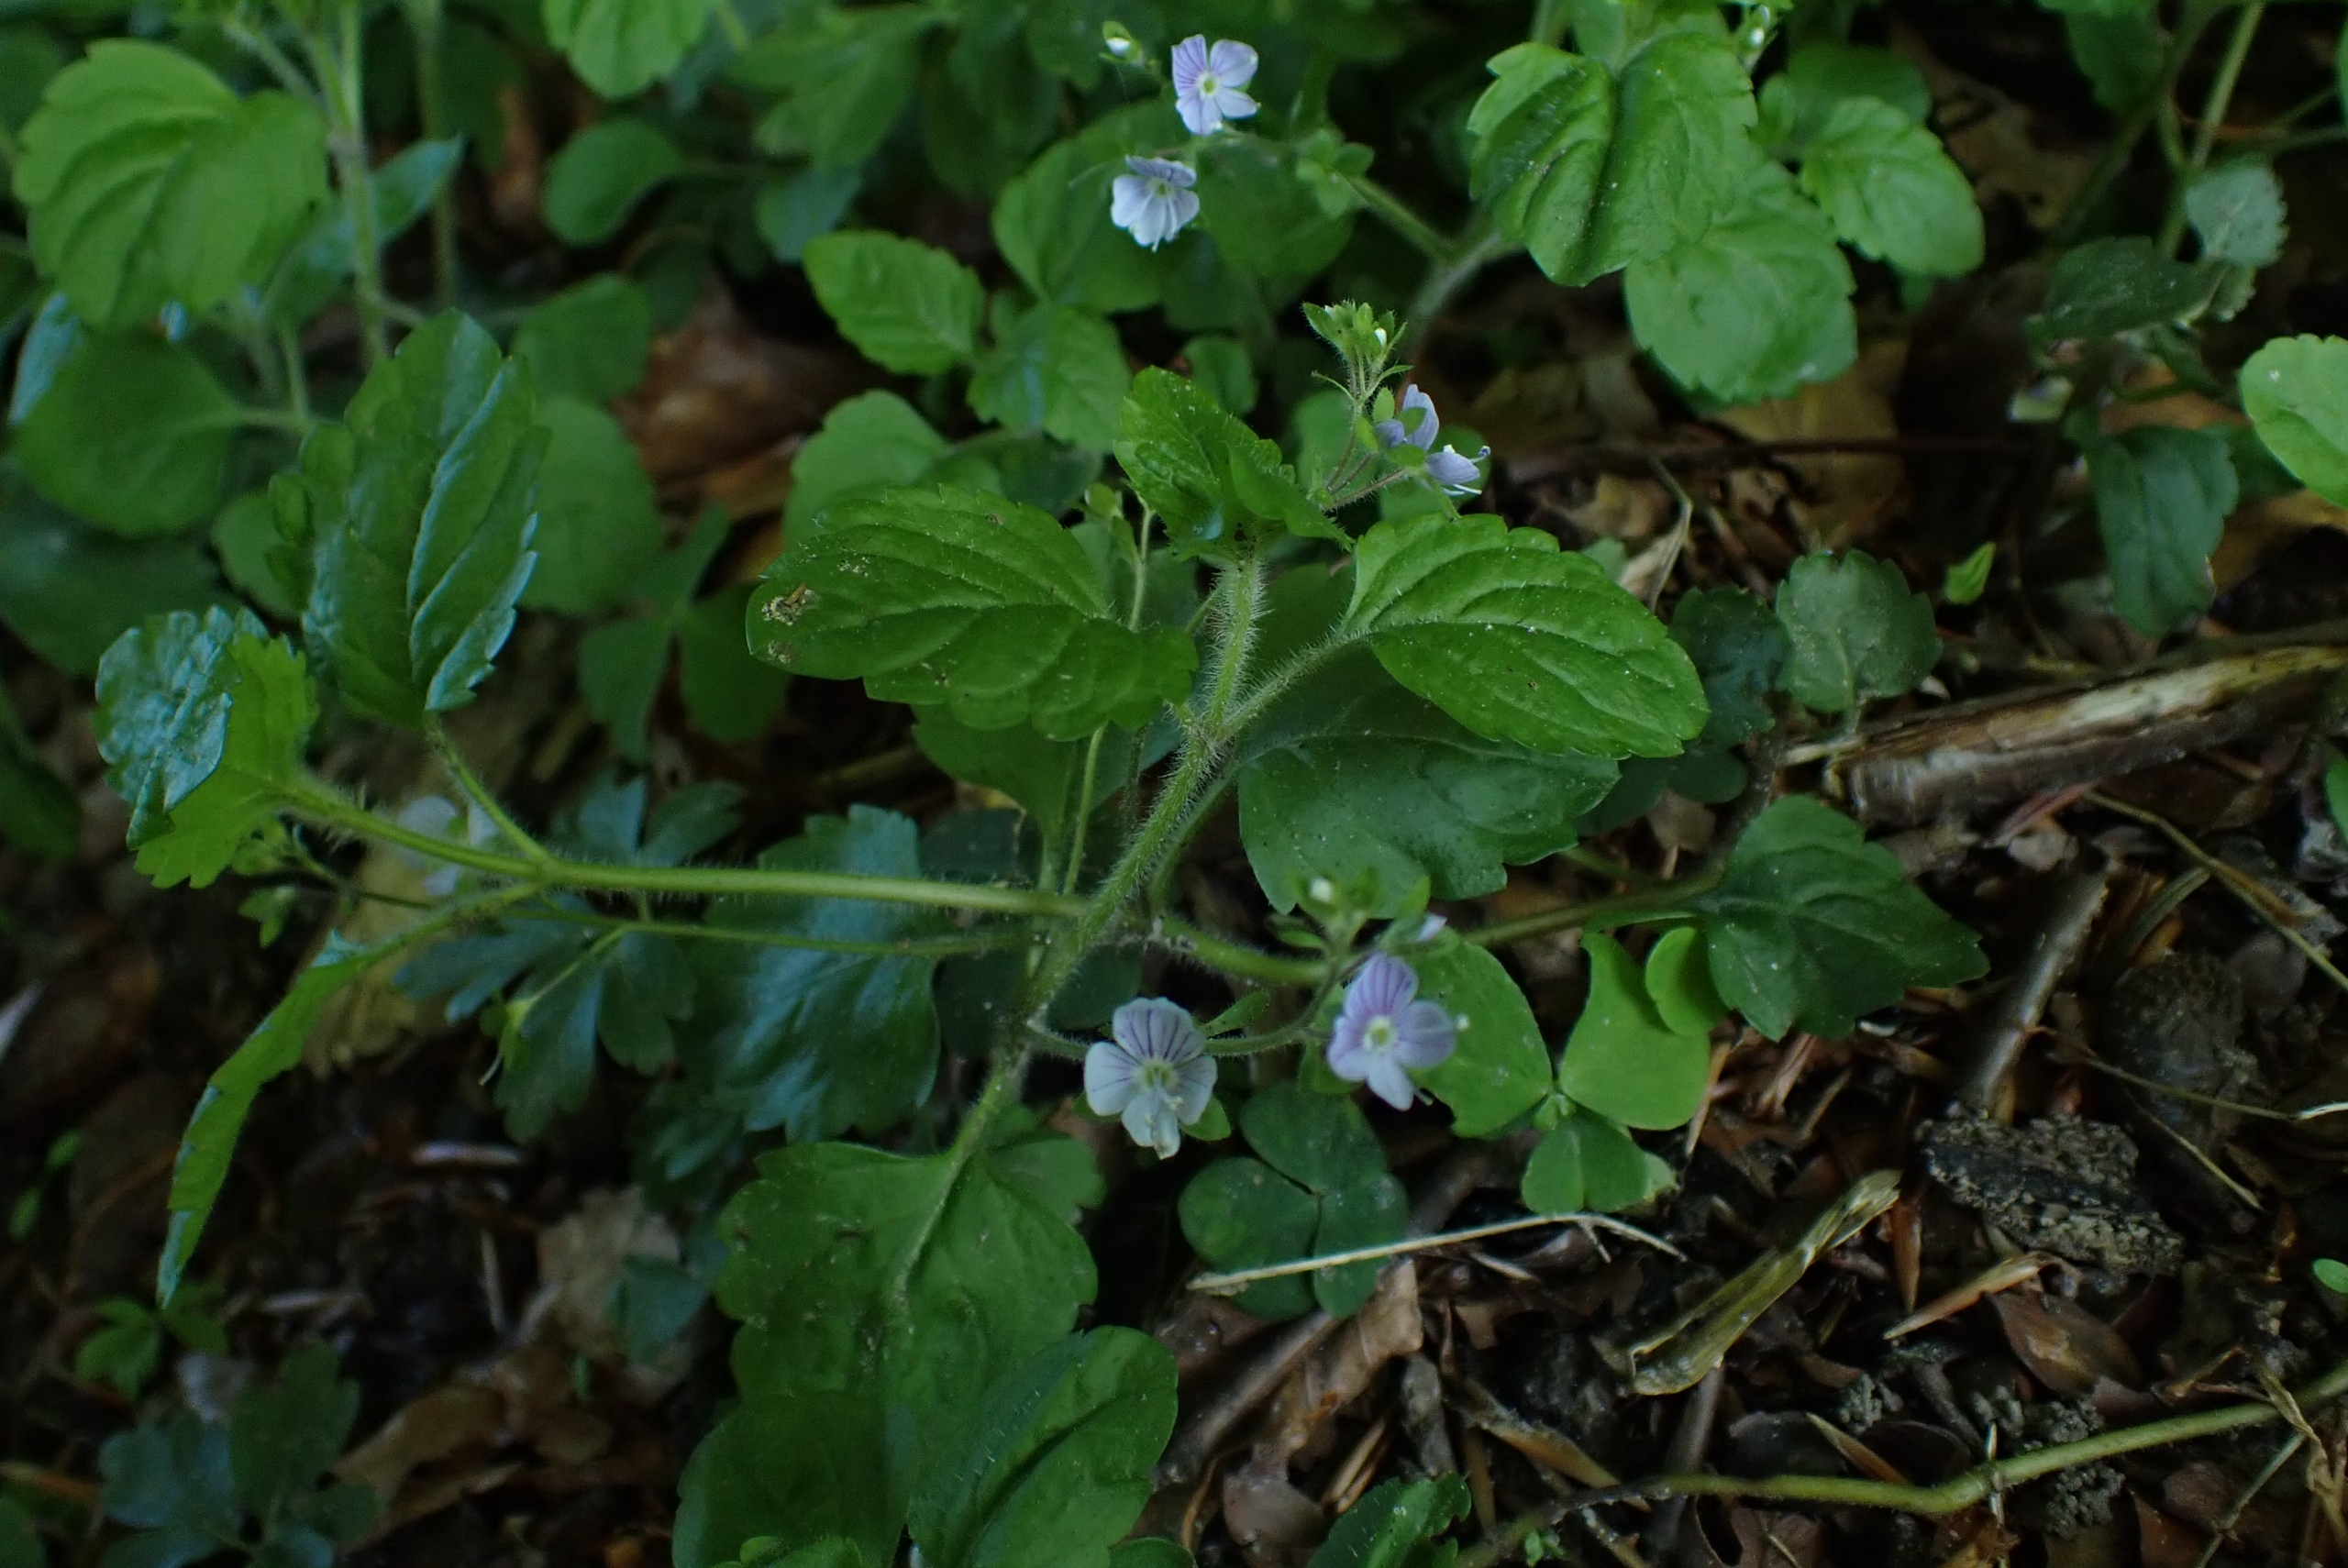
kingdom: Plantae
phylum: Tracheophyta
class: Magnoliopsida
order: Lamiales
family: Plantaginaceae
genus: Veronica
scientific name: Veronica montana
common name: Bjerg-ærenpris
